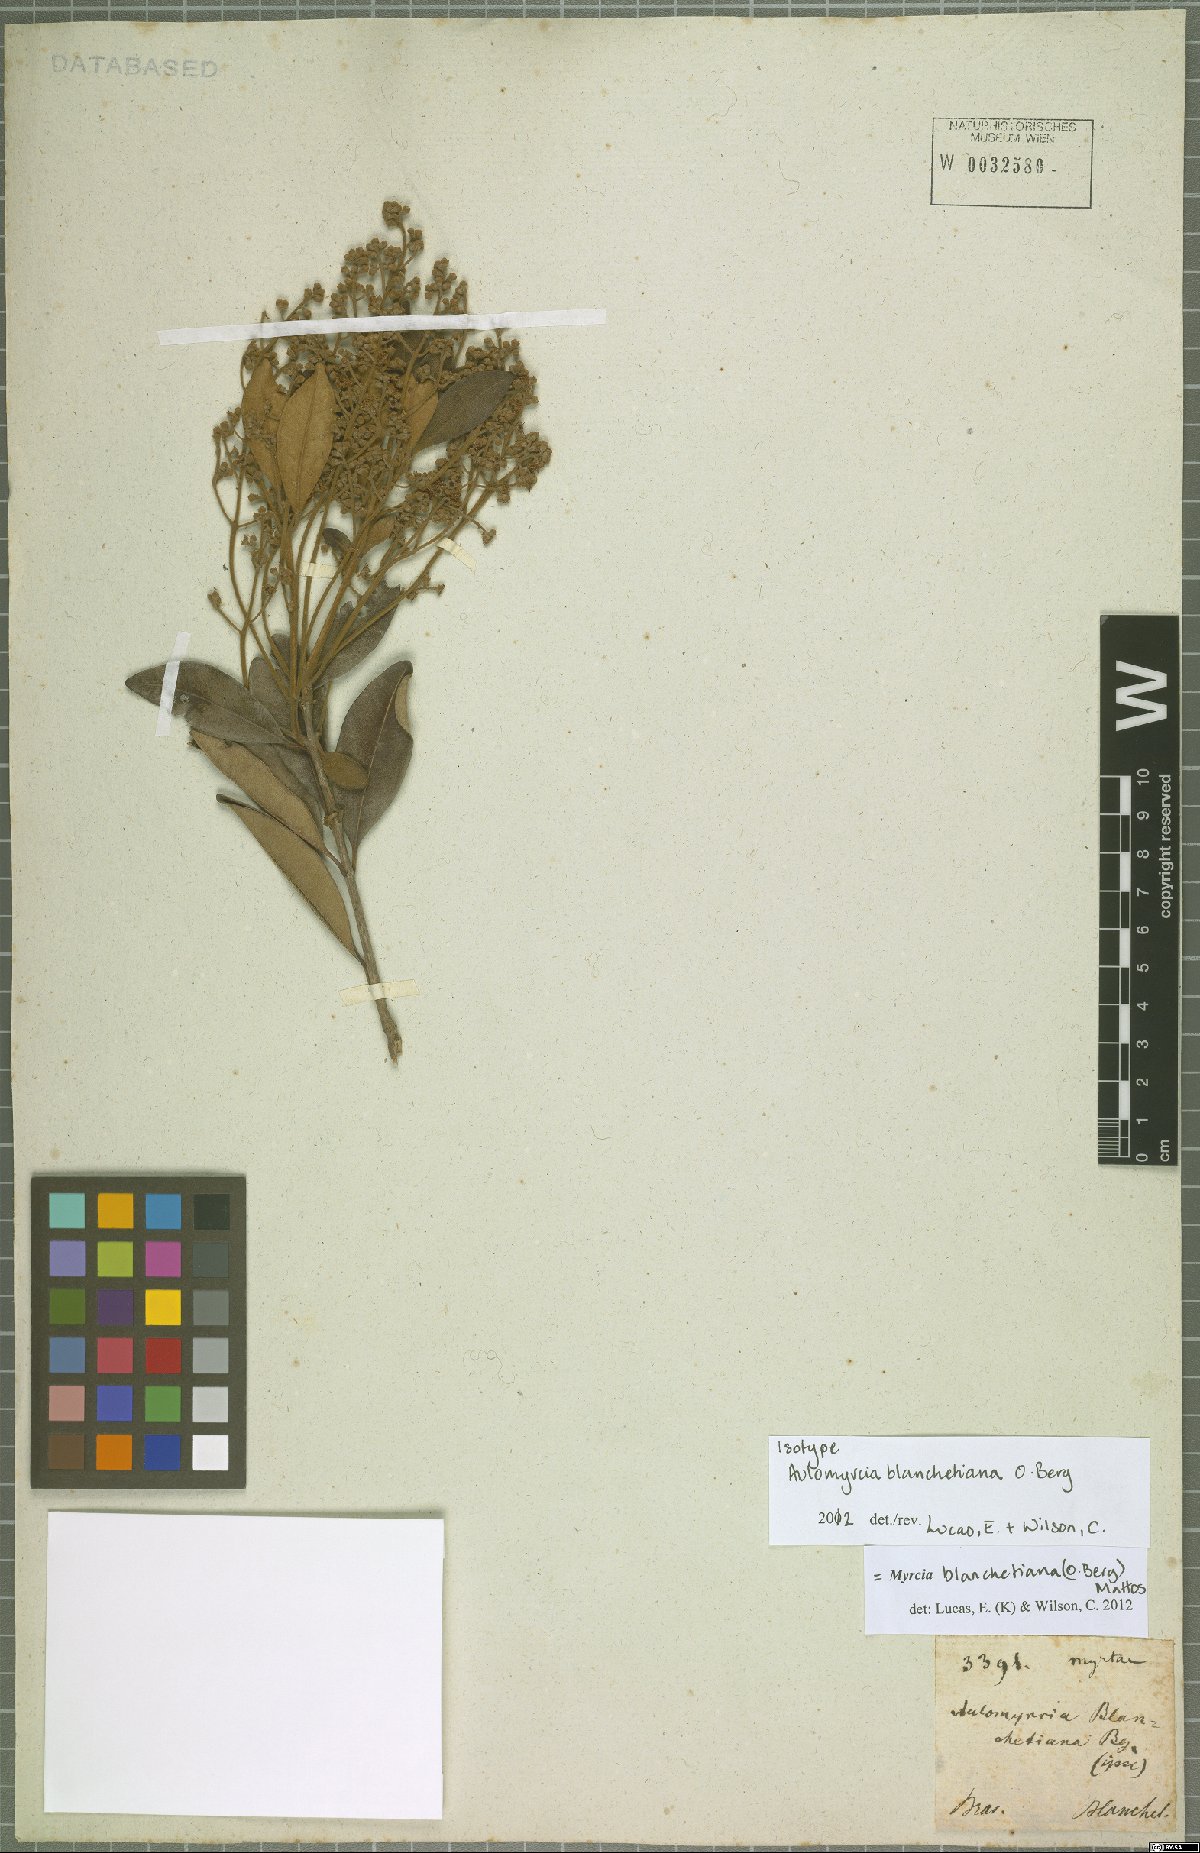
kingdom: Plantae
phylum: Tracheophyta
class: Magnoliopsida
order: Myrtales
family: Myrtaceae
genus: Myrcia
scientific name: Myrcia blanchetiana
